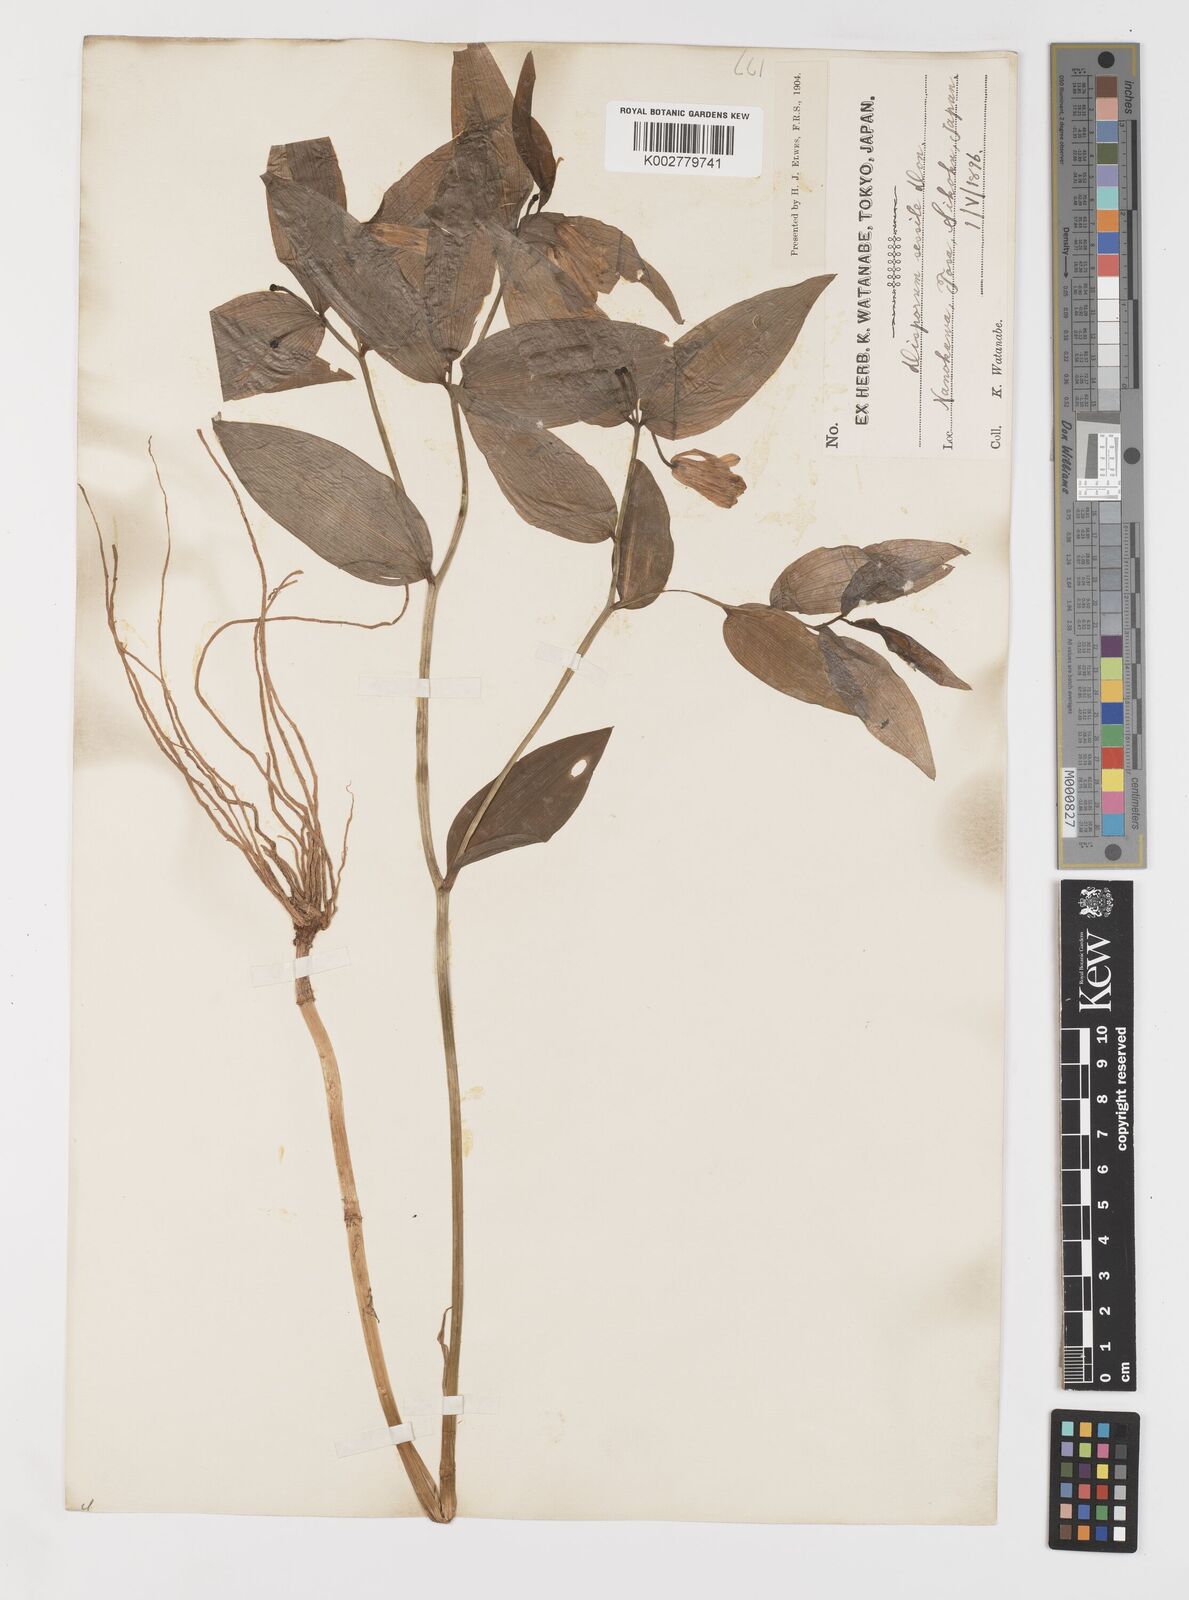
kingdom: Plantae
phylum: Tracheophyta
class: Liliopsida
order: Liliales
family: Colchicaceae
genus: Disporum
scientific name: Disporum sessile
